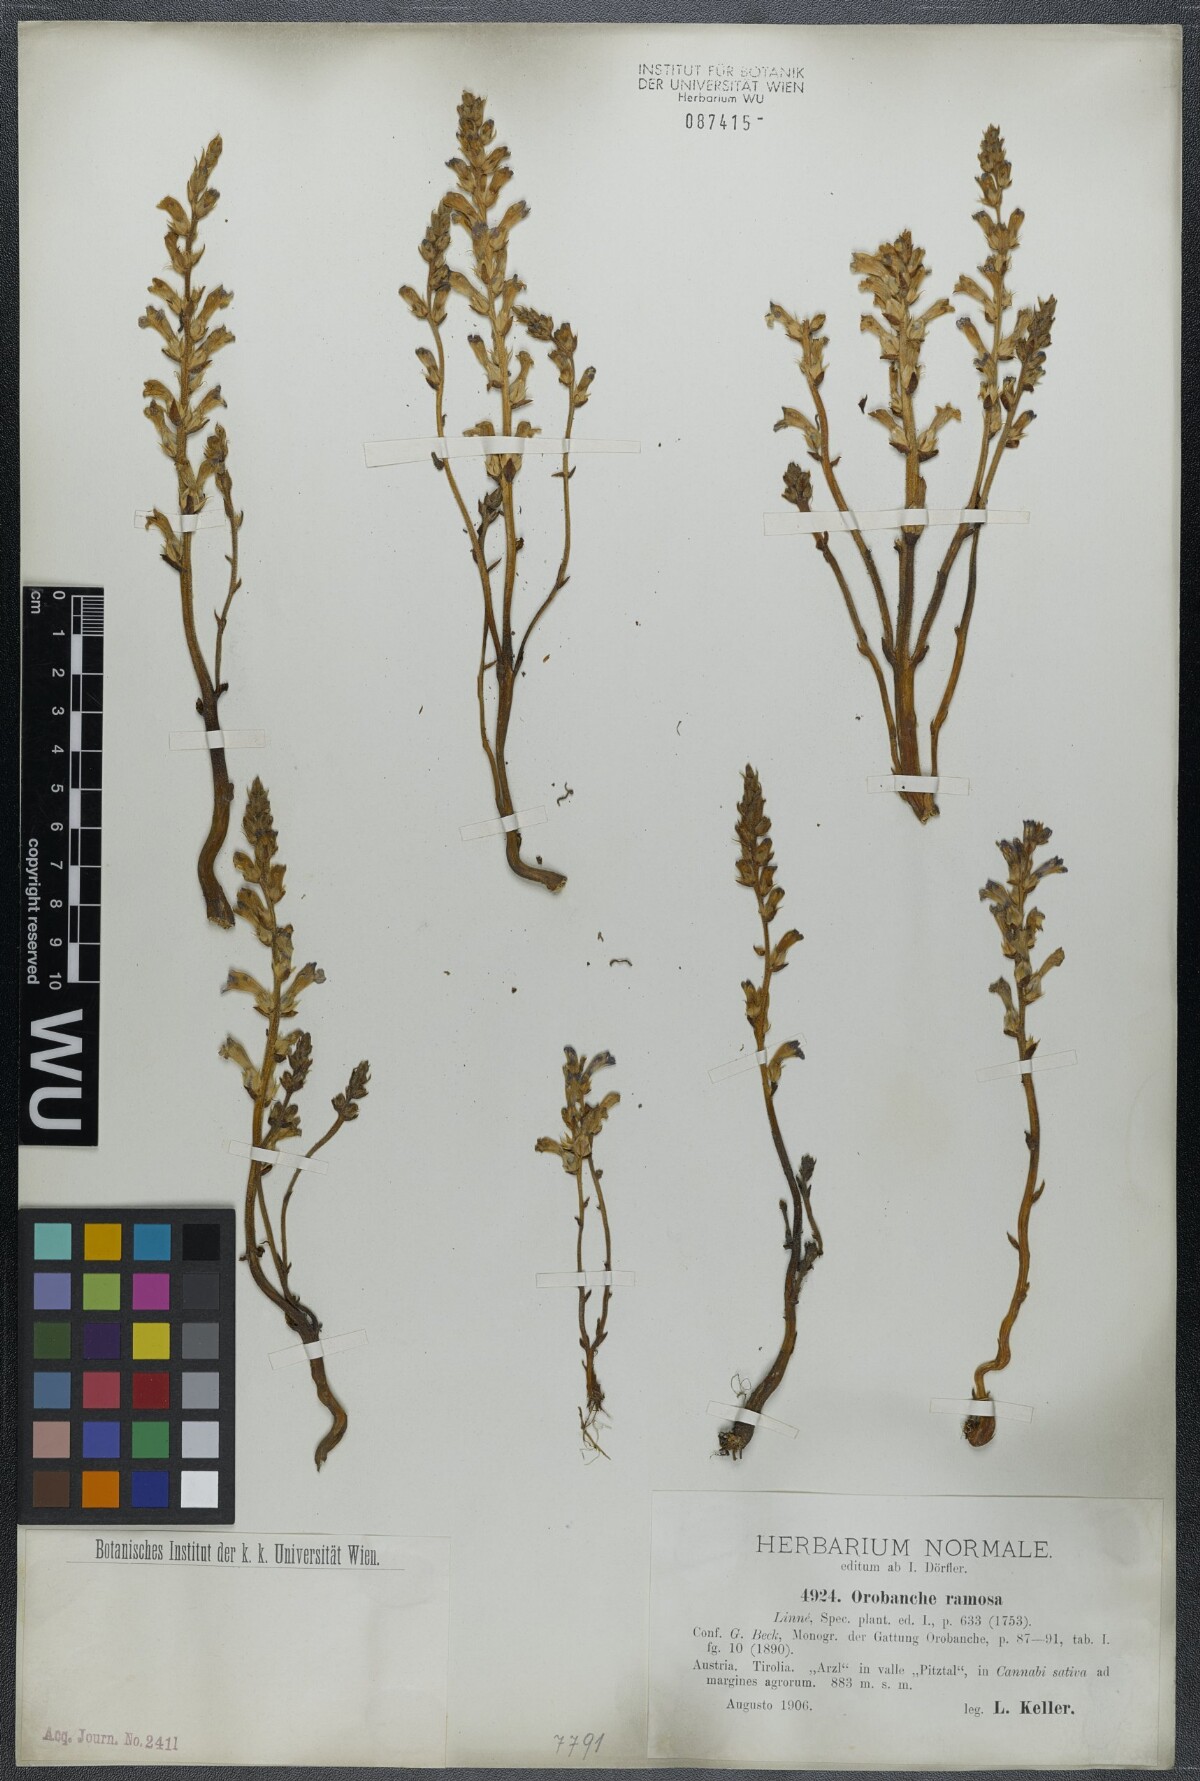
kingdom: Plantae
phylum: Tracheophyta
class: Magnoliopsida
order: Lamiales
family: Orobanchaceae
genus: Phelipanche
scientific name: Phelipanche ramosa
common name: Branched broomrape
